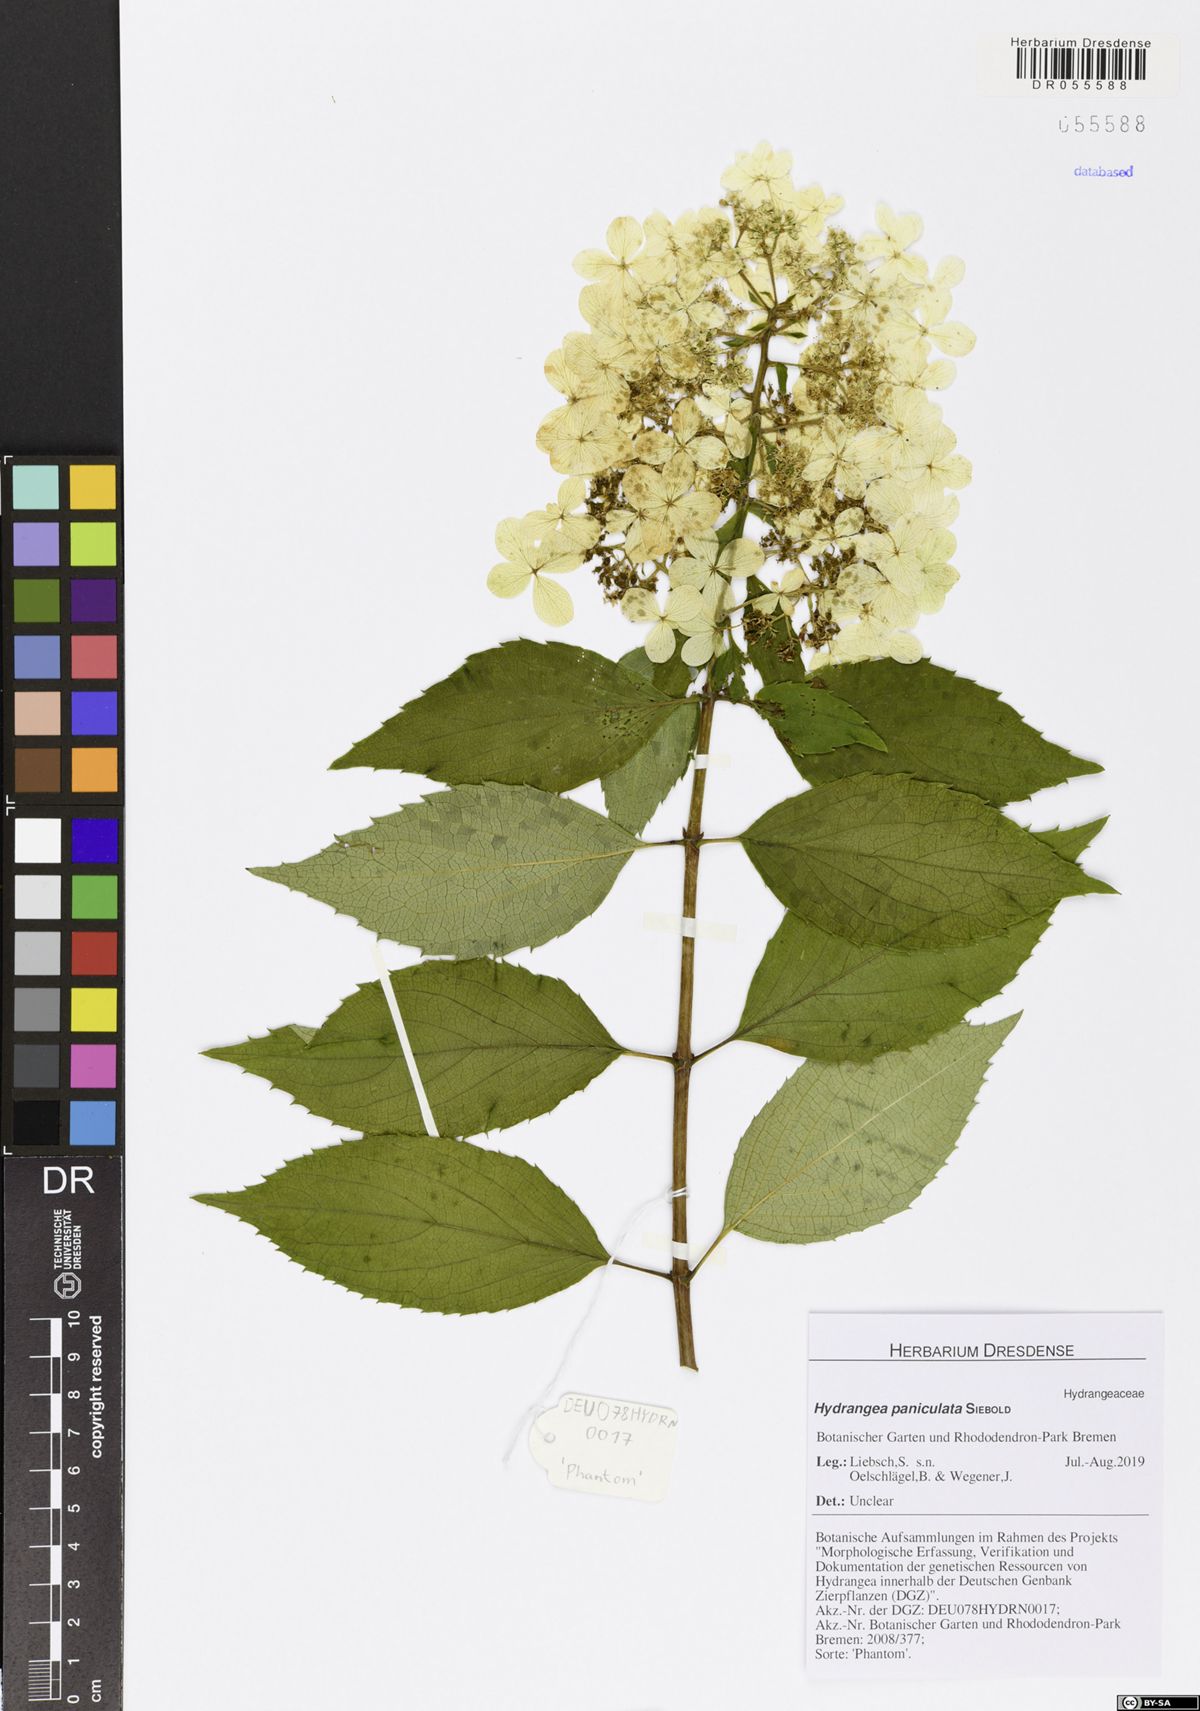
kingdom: Plantae
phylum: Tracheophyta
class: Magnoliopsida
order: Cornales
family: Hydrangeaceae
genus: Hydrangea
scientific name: Hydrangea paniculata
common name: Panicled hydrangea
